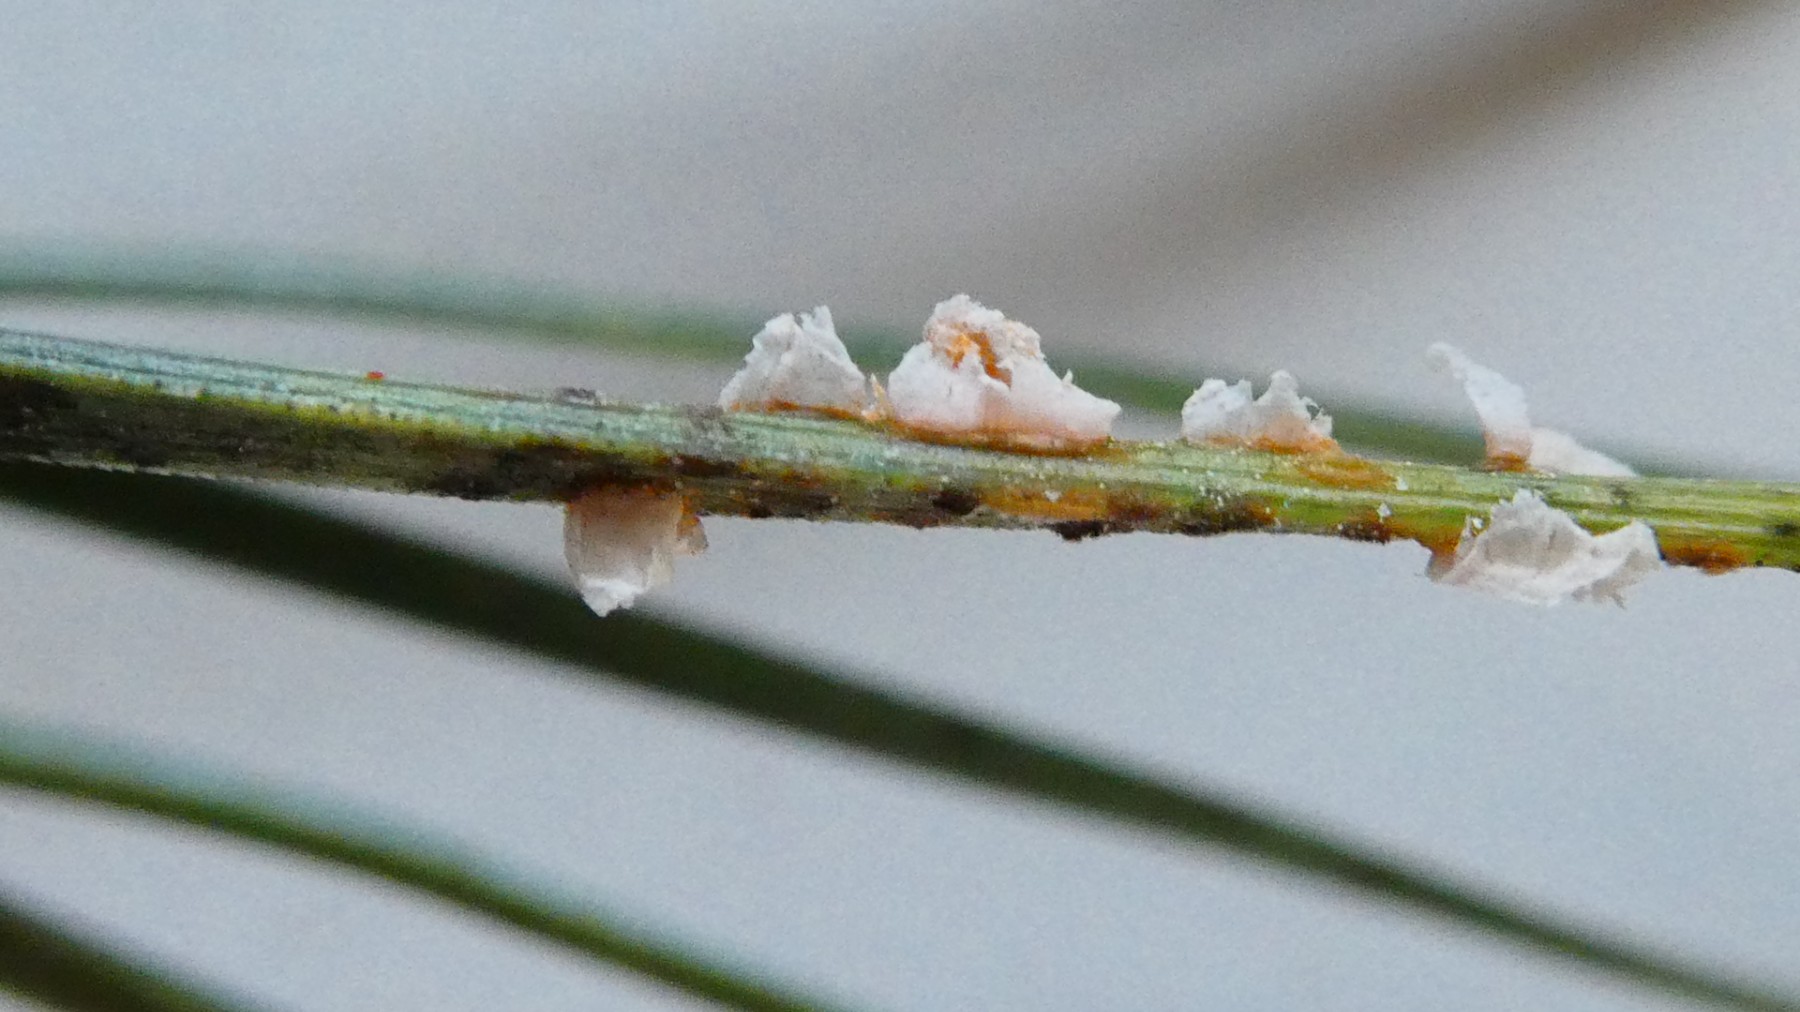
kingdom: Fungi
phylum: Basidiomycota
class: Pucciniomycetes
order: Pucciniales
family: Coleosporiaceae
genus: Coleosporium
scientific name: Coleosporium tussilaginis
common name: almindelig fyrrenålerust
